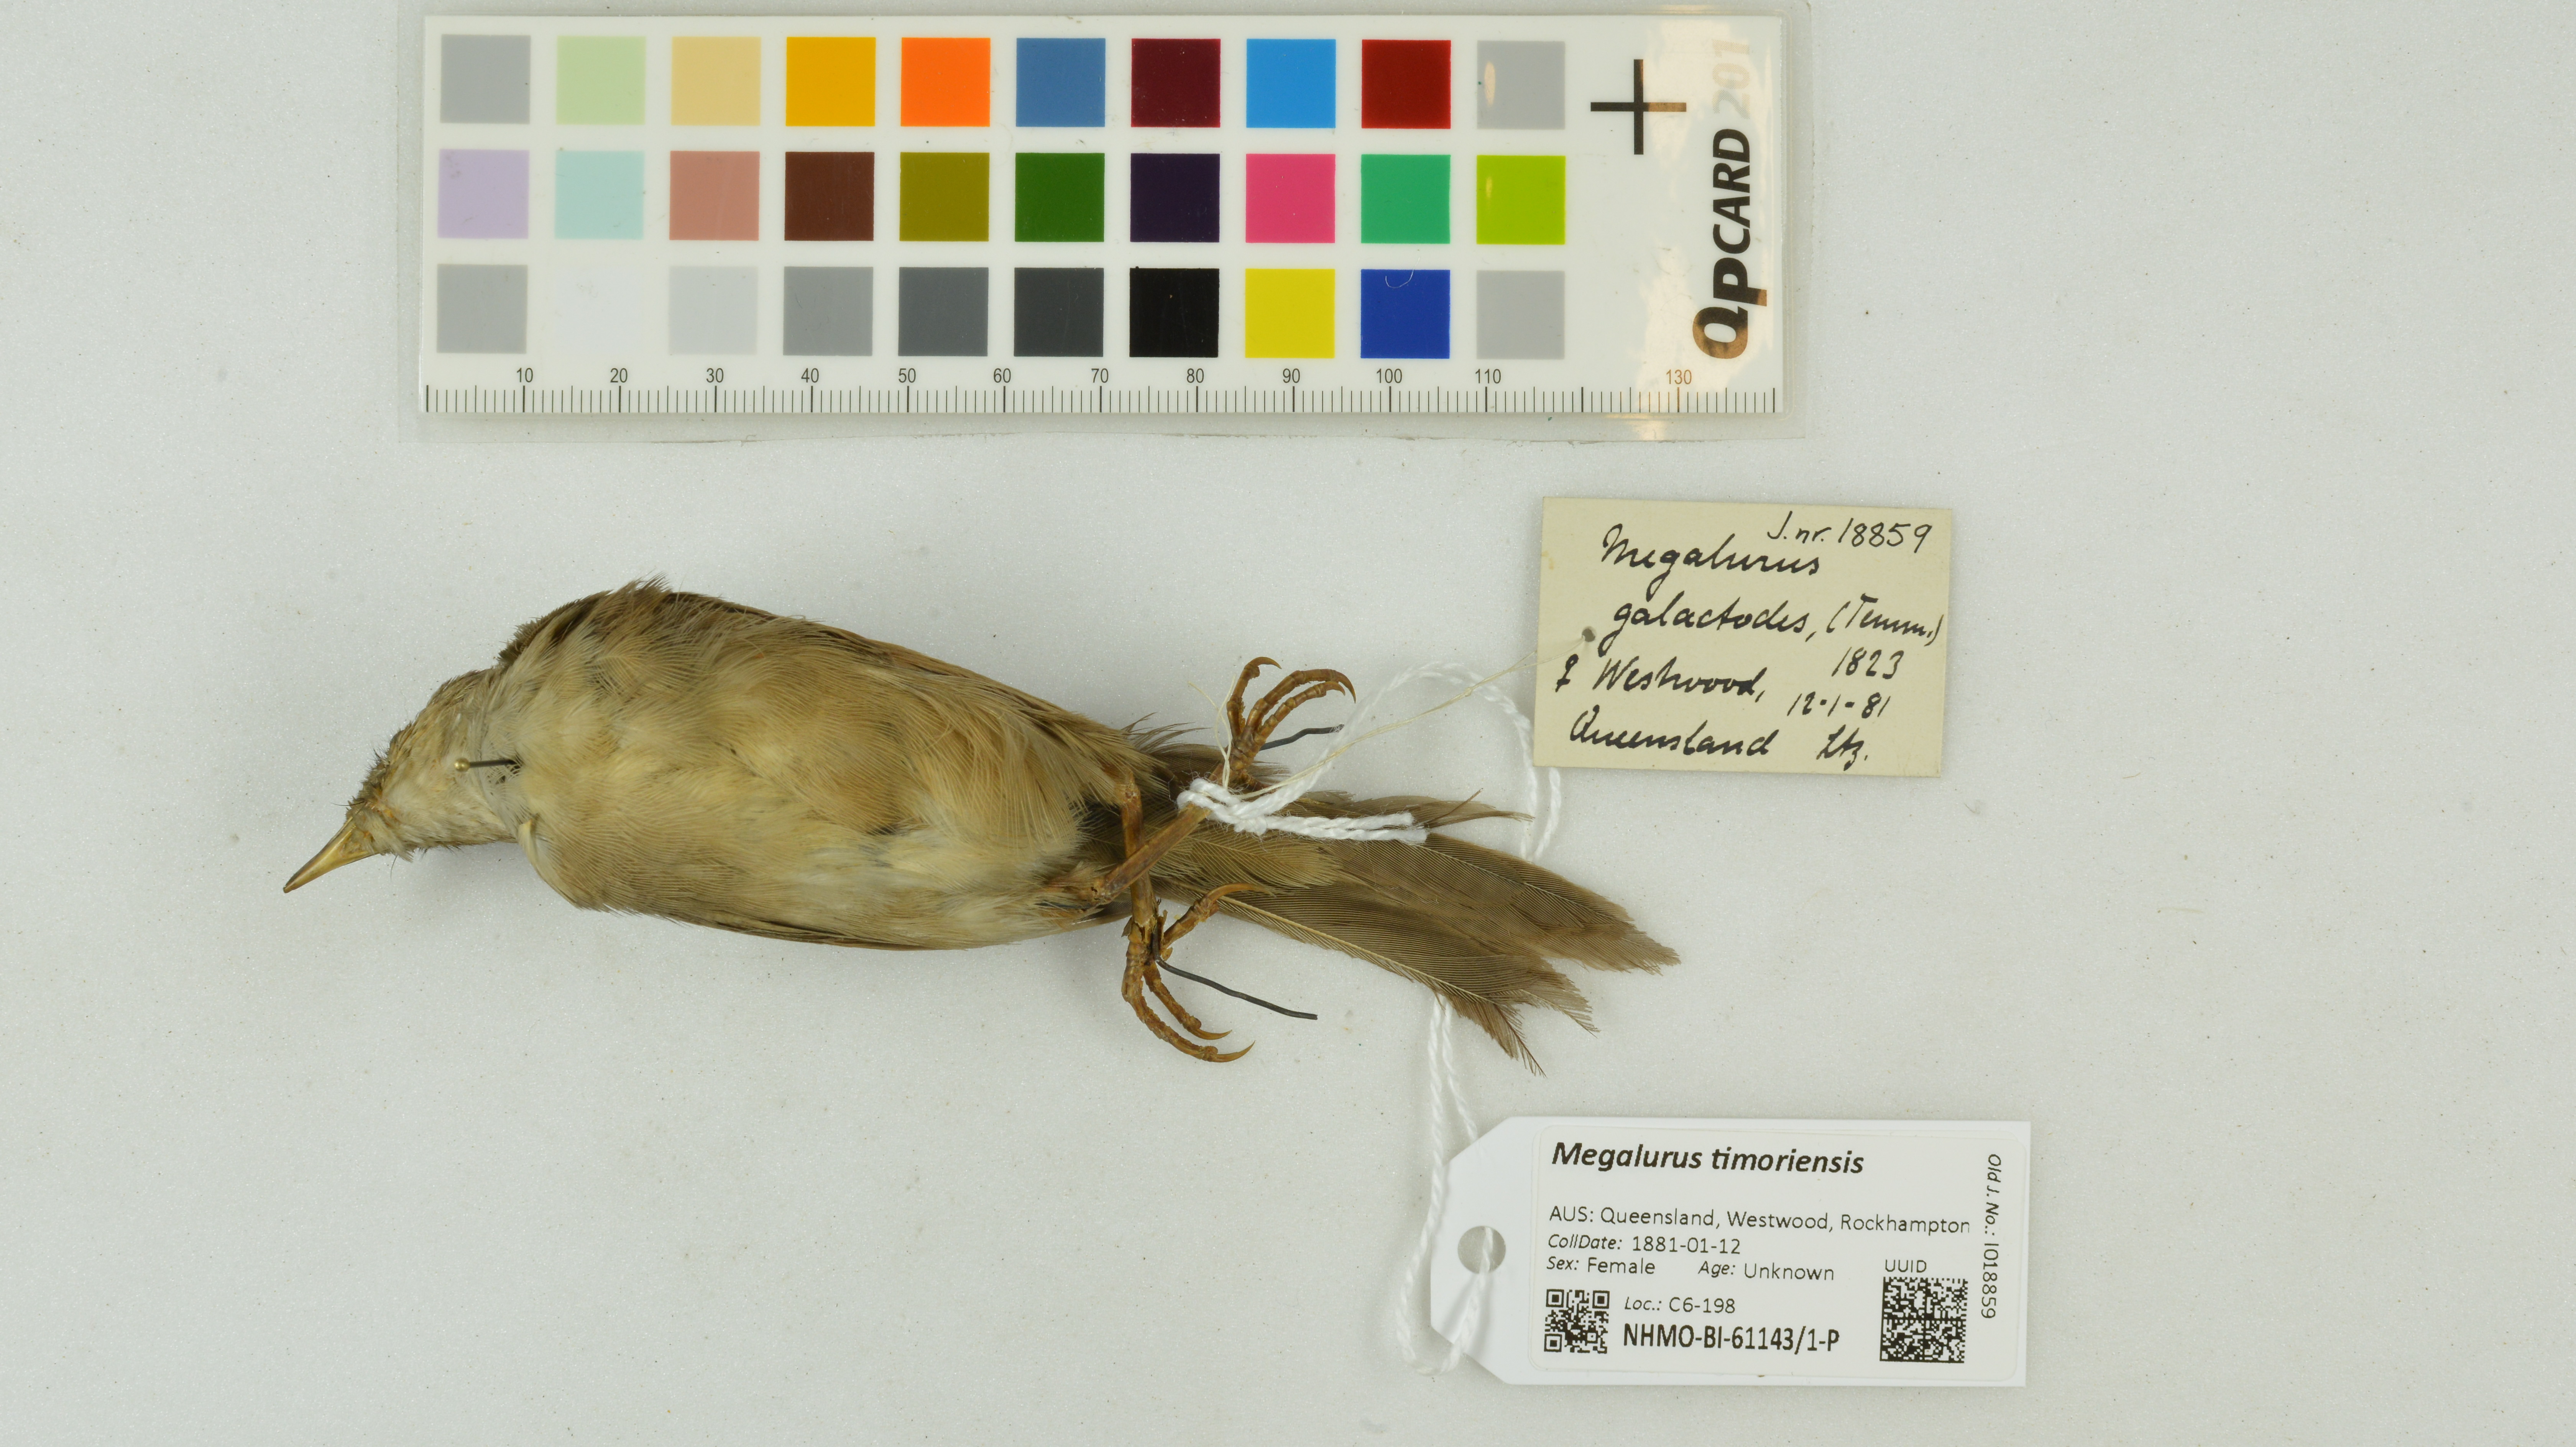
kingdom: Animalia
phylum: Chordata
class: Aves
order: Passeriformes
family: Locustellidae
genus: Megalurus
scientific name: Megalurus timoriensis
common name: Tawny grassbird
